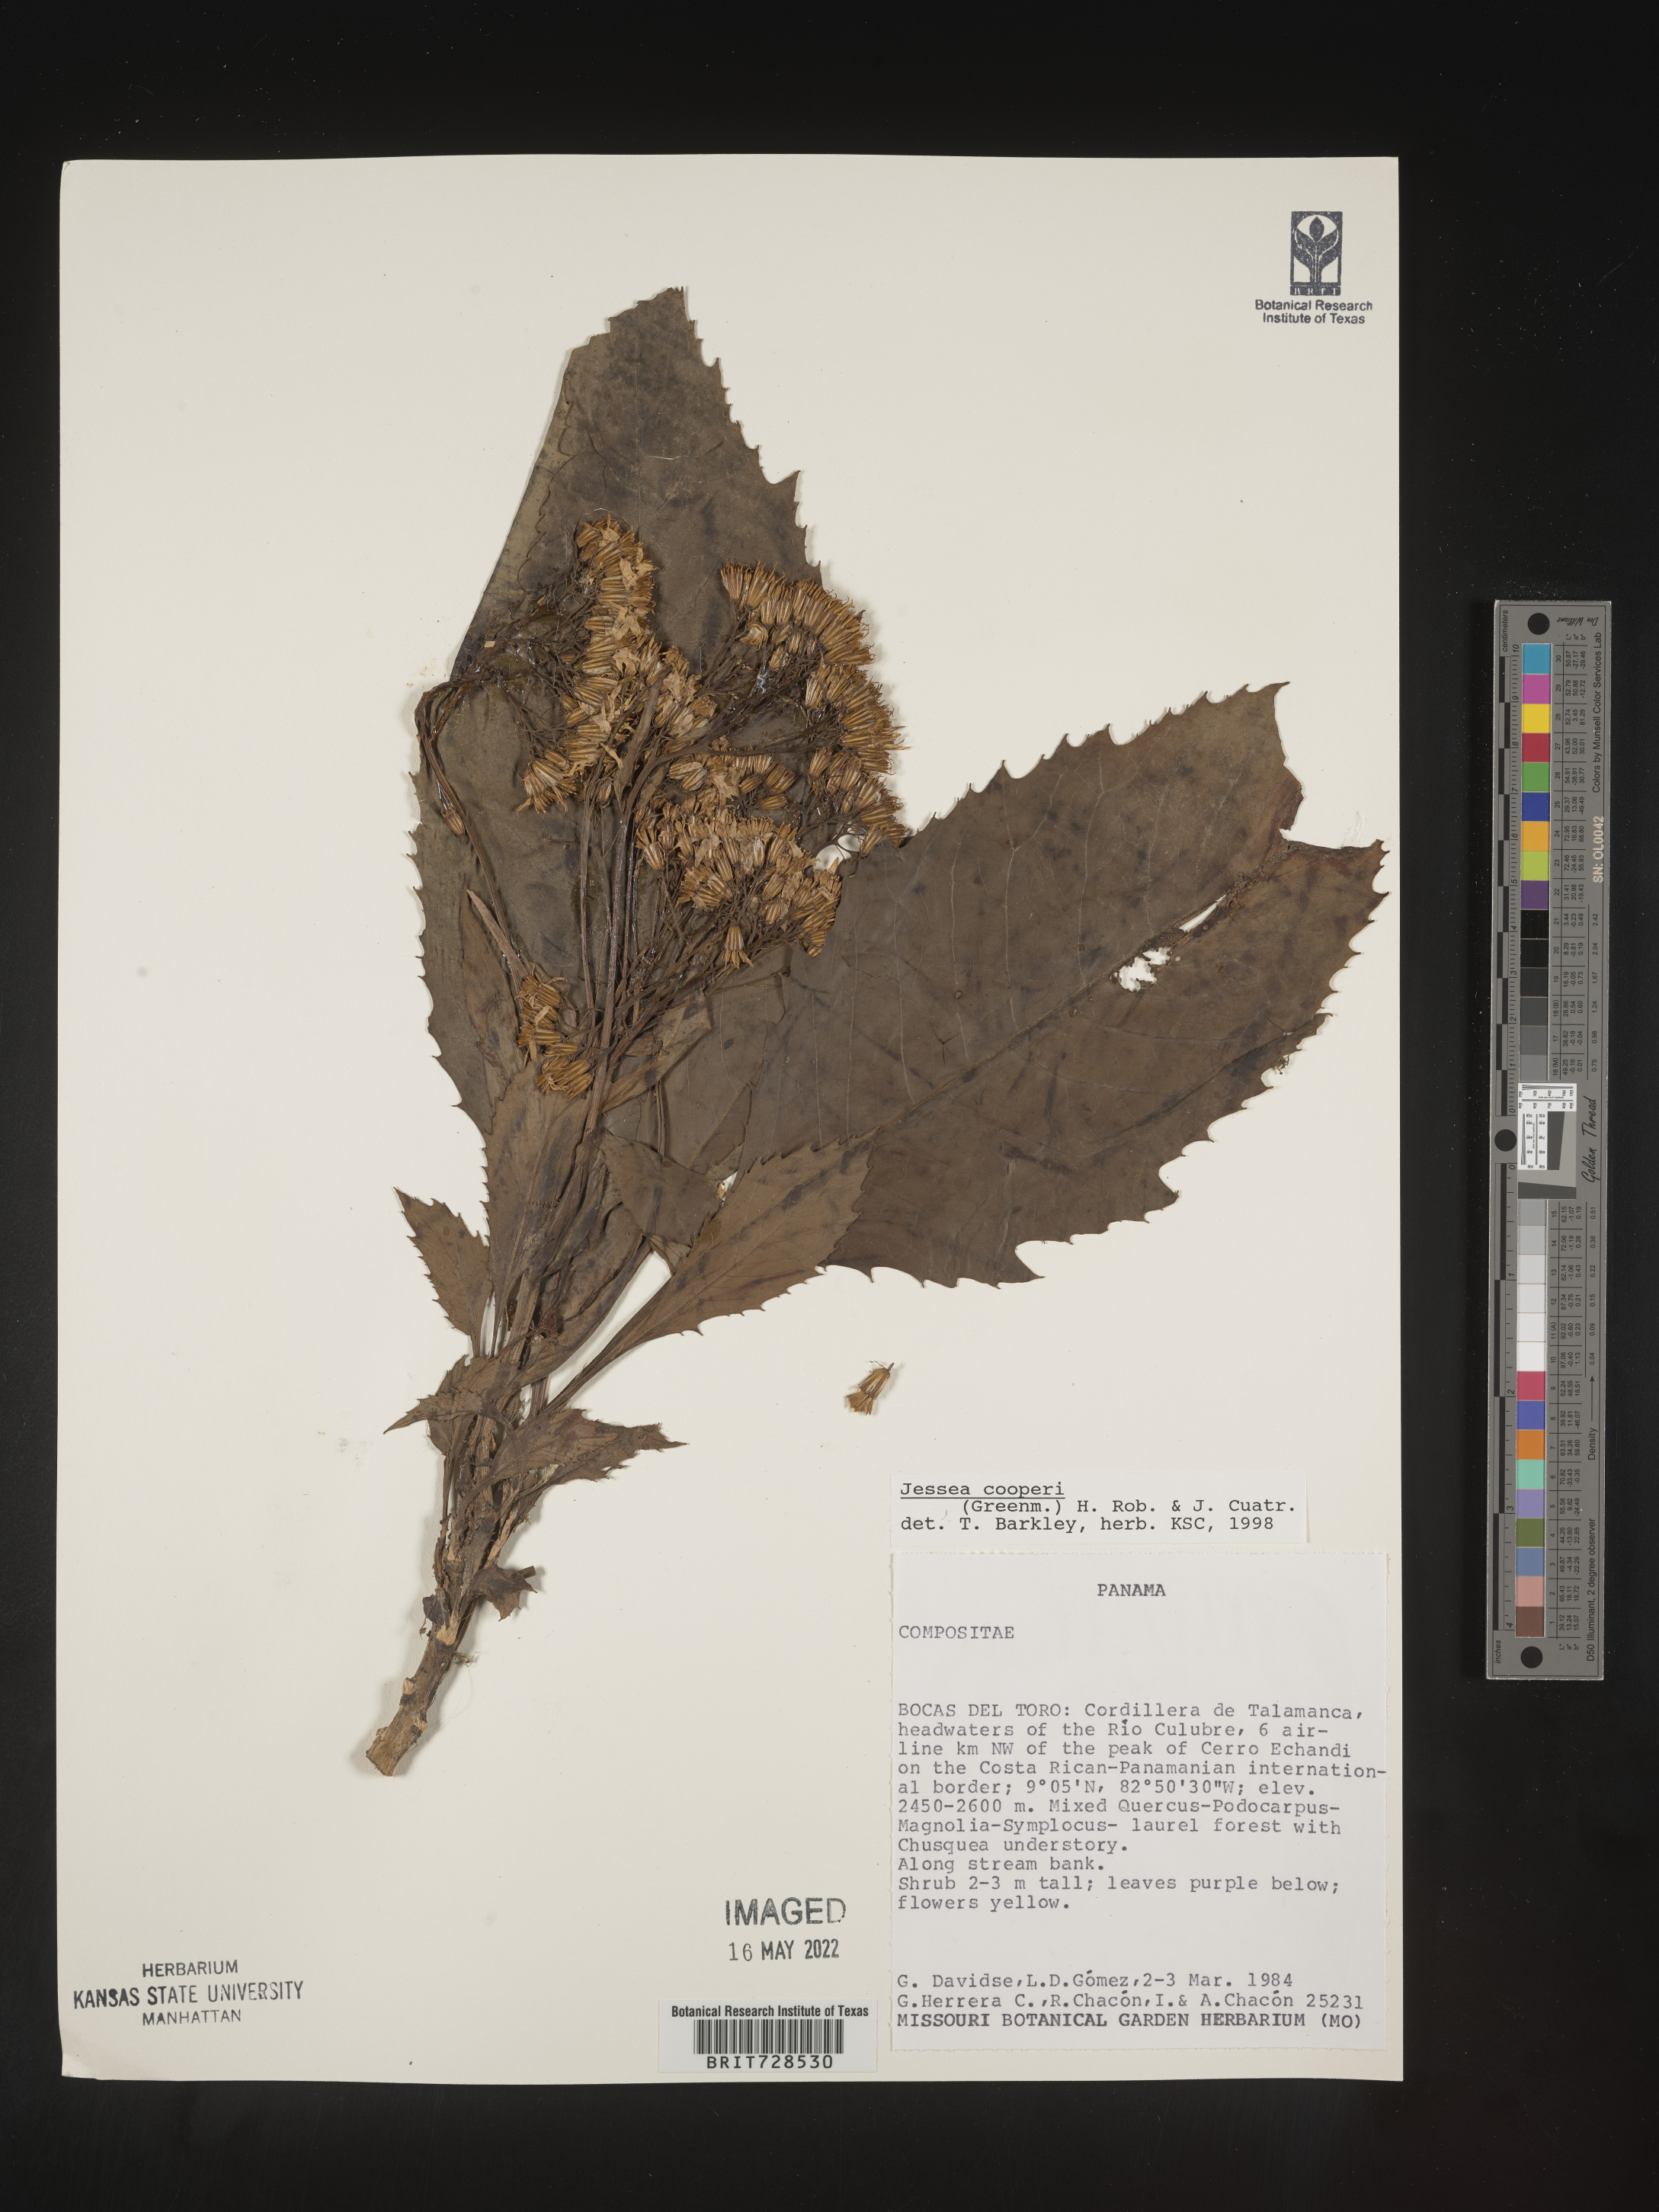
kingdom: Plantae
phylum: Tracheophyta
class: Magnoliopsida
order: Asterales
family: Asteraceae
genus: Jessea
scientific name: Jessea
